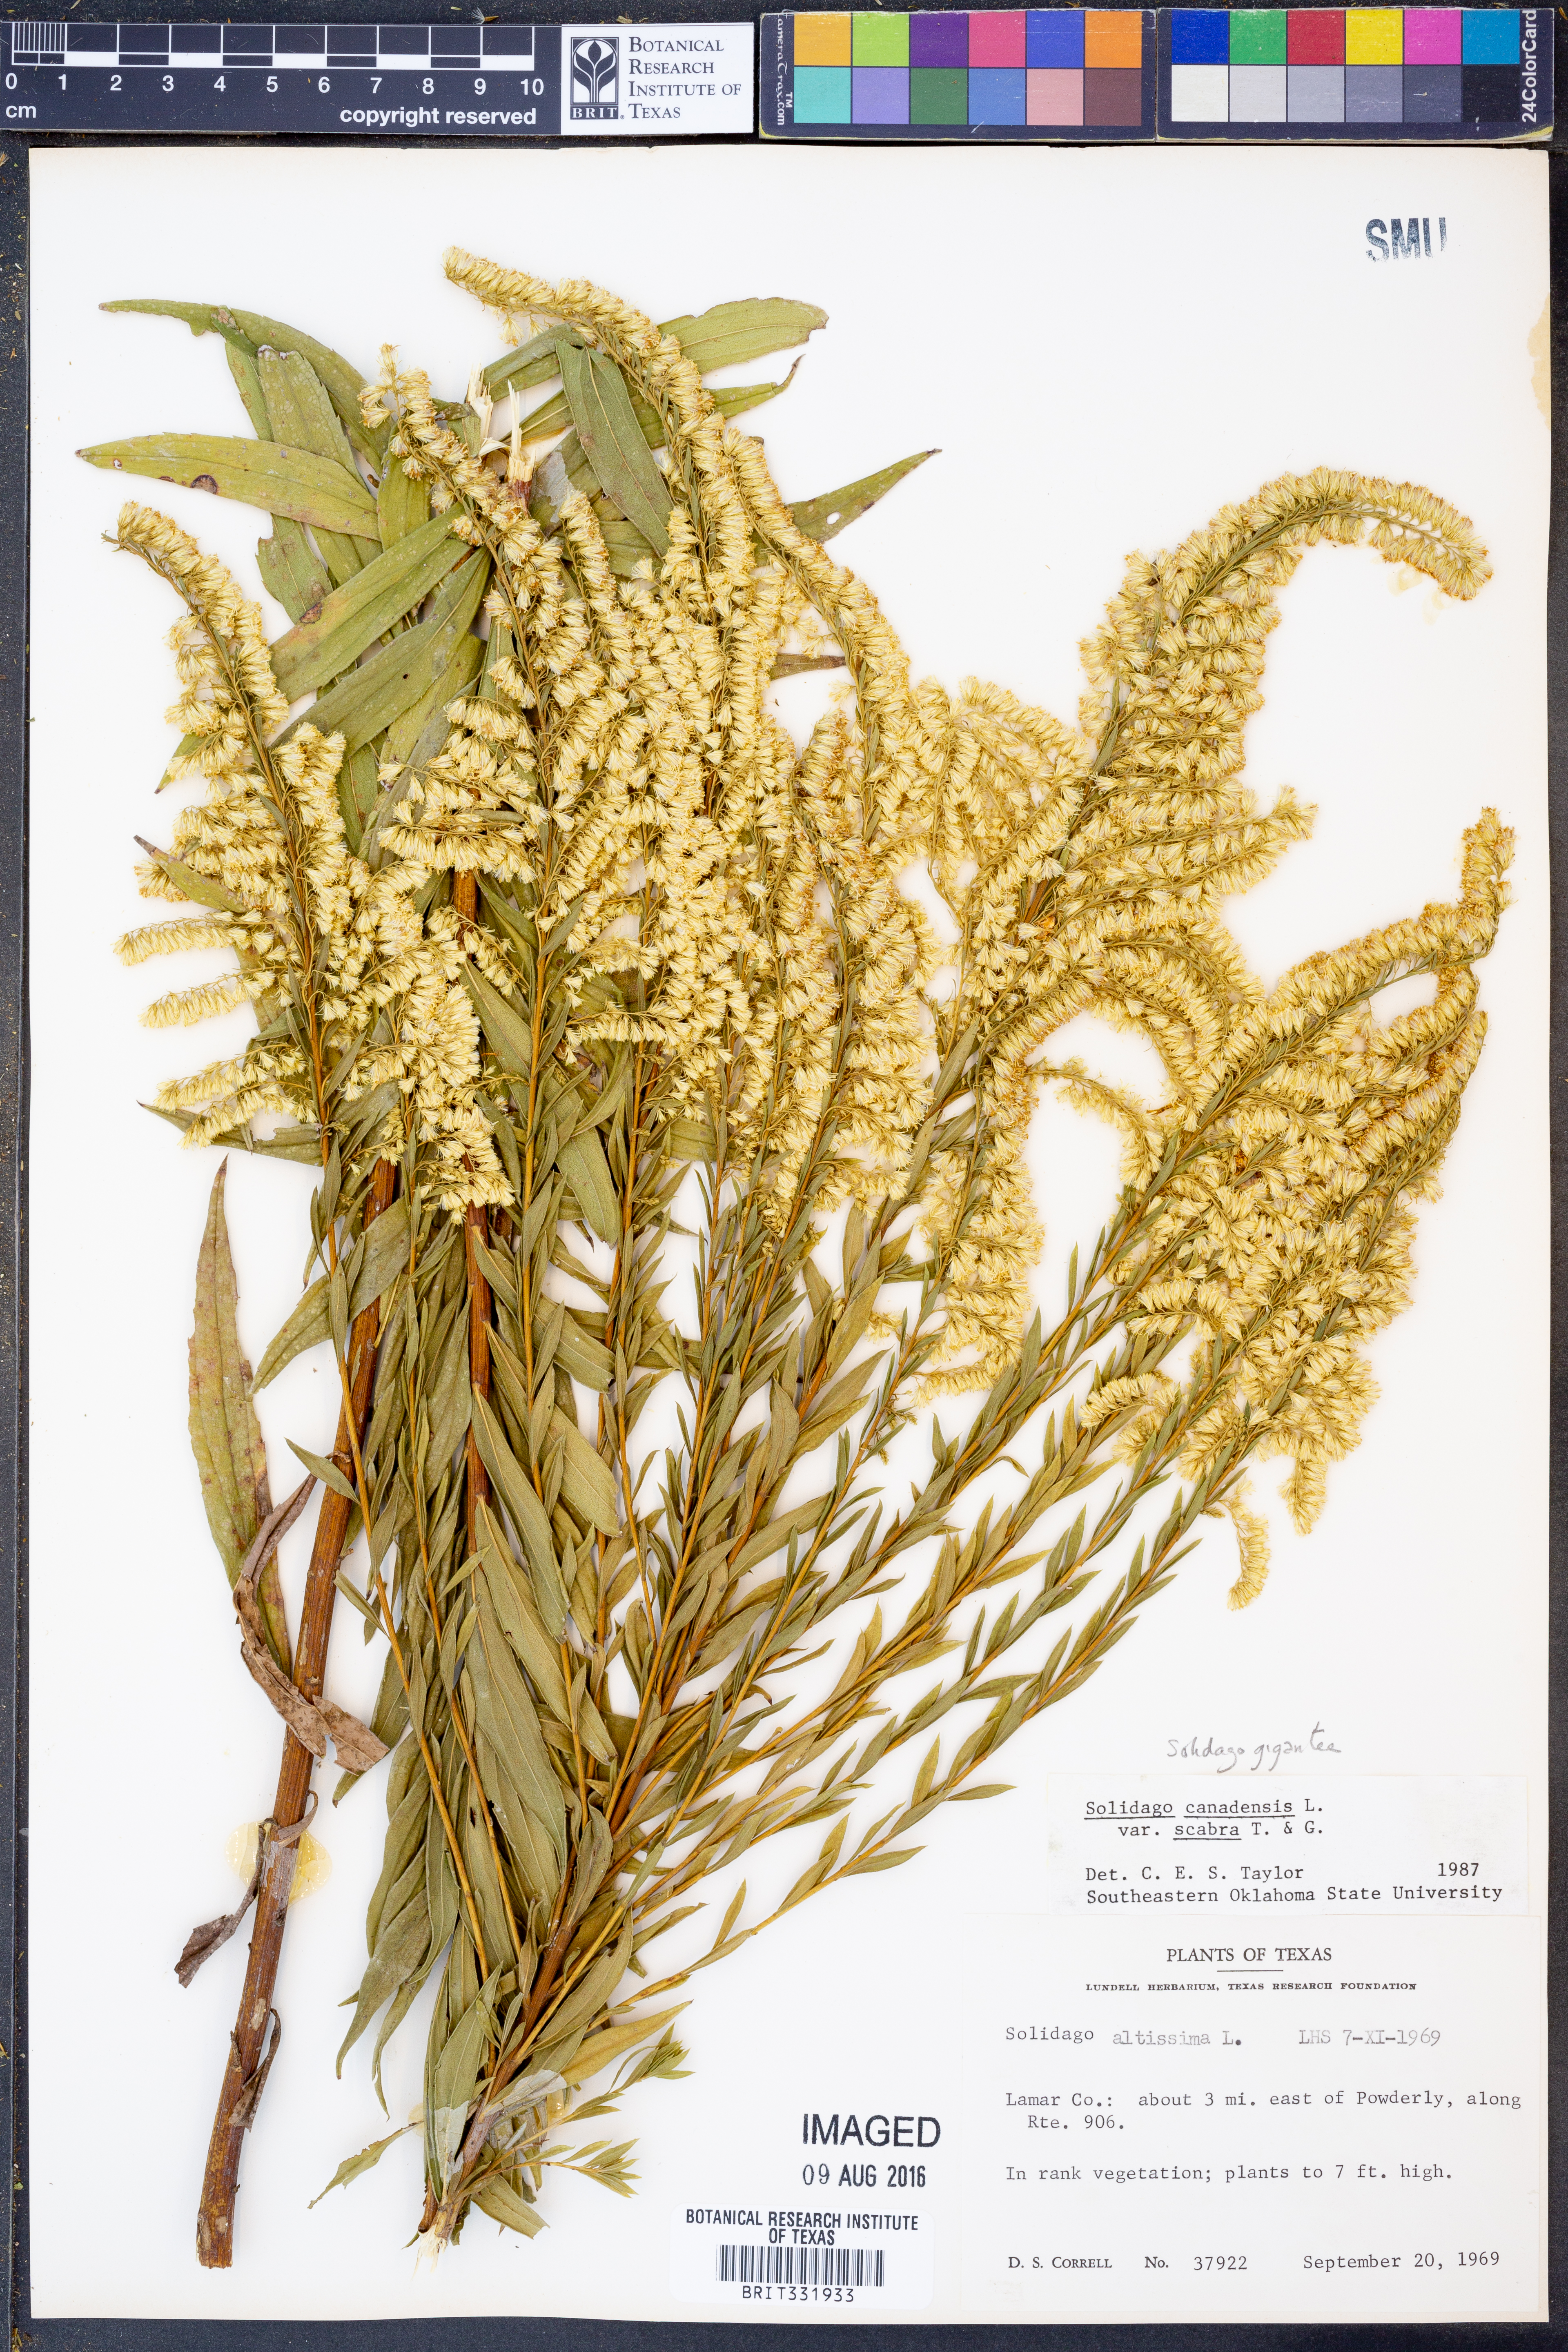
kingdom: Plantae
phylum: Tracheophyta
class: Magnoliopsida
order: Asterales
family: Asteraceae
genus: Solidago
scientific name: Solidago gigantea
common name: Giant goldenrod
